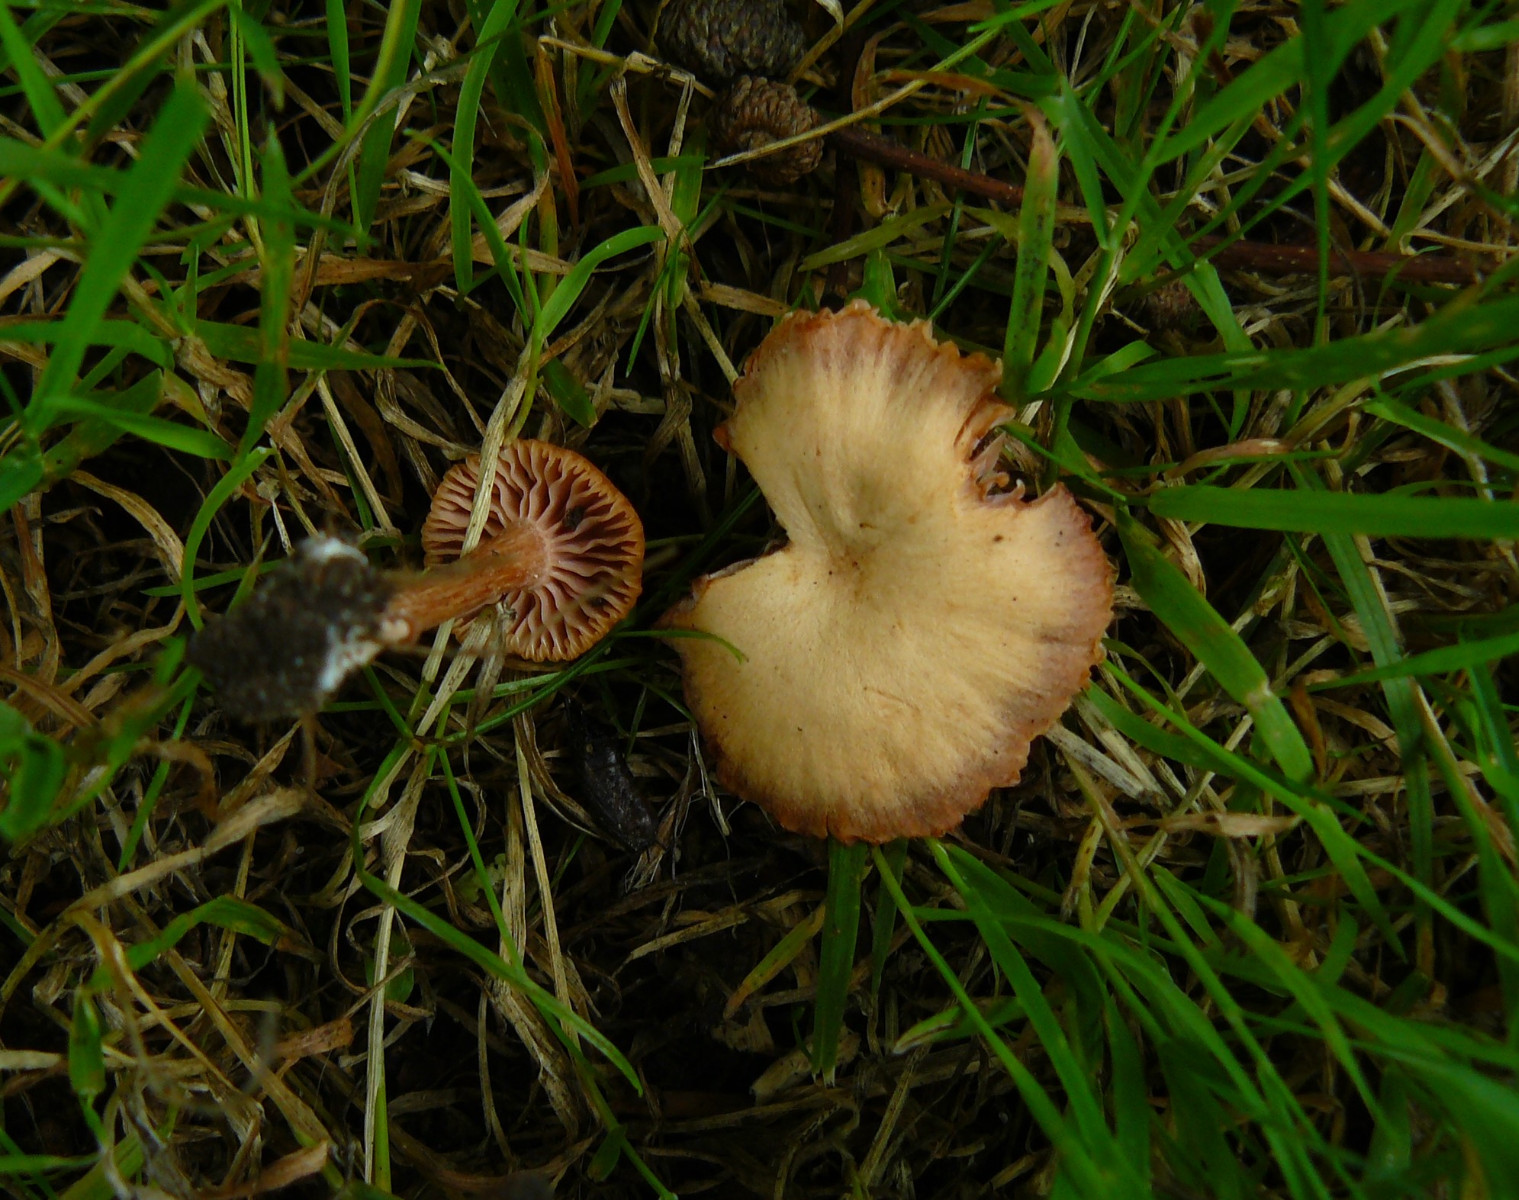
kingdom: Fungi
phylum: Basidiomycota
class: Agaricomycetes
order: Agaricales
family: Hydnangiaceae
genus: Laccaria
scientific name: Laccaria laccata
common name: rød ametysthat
